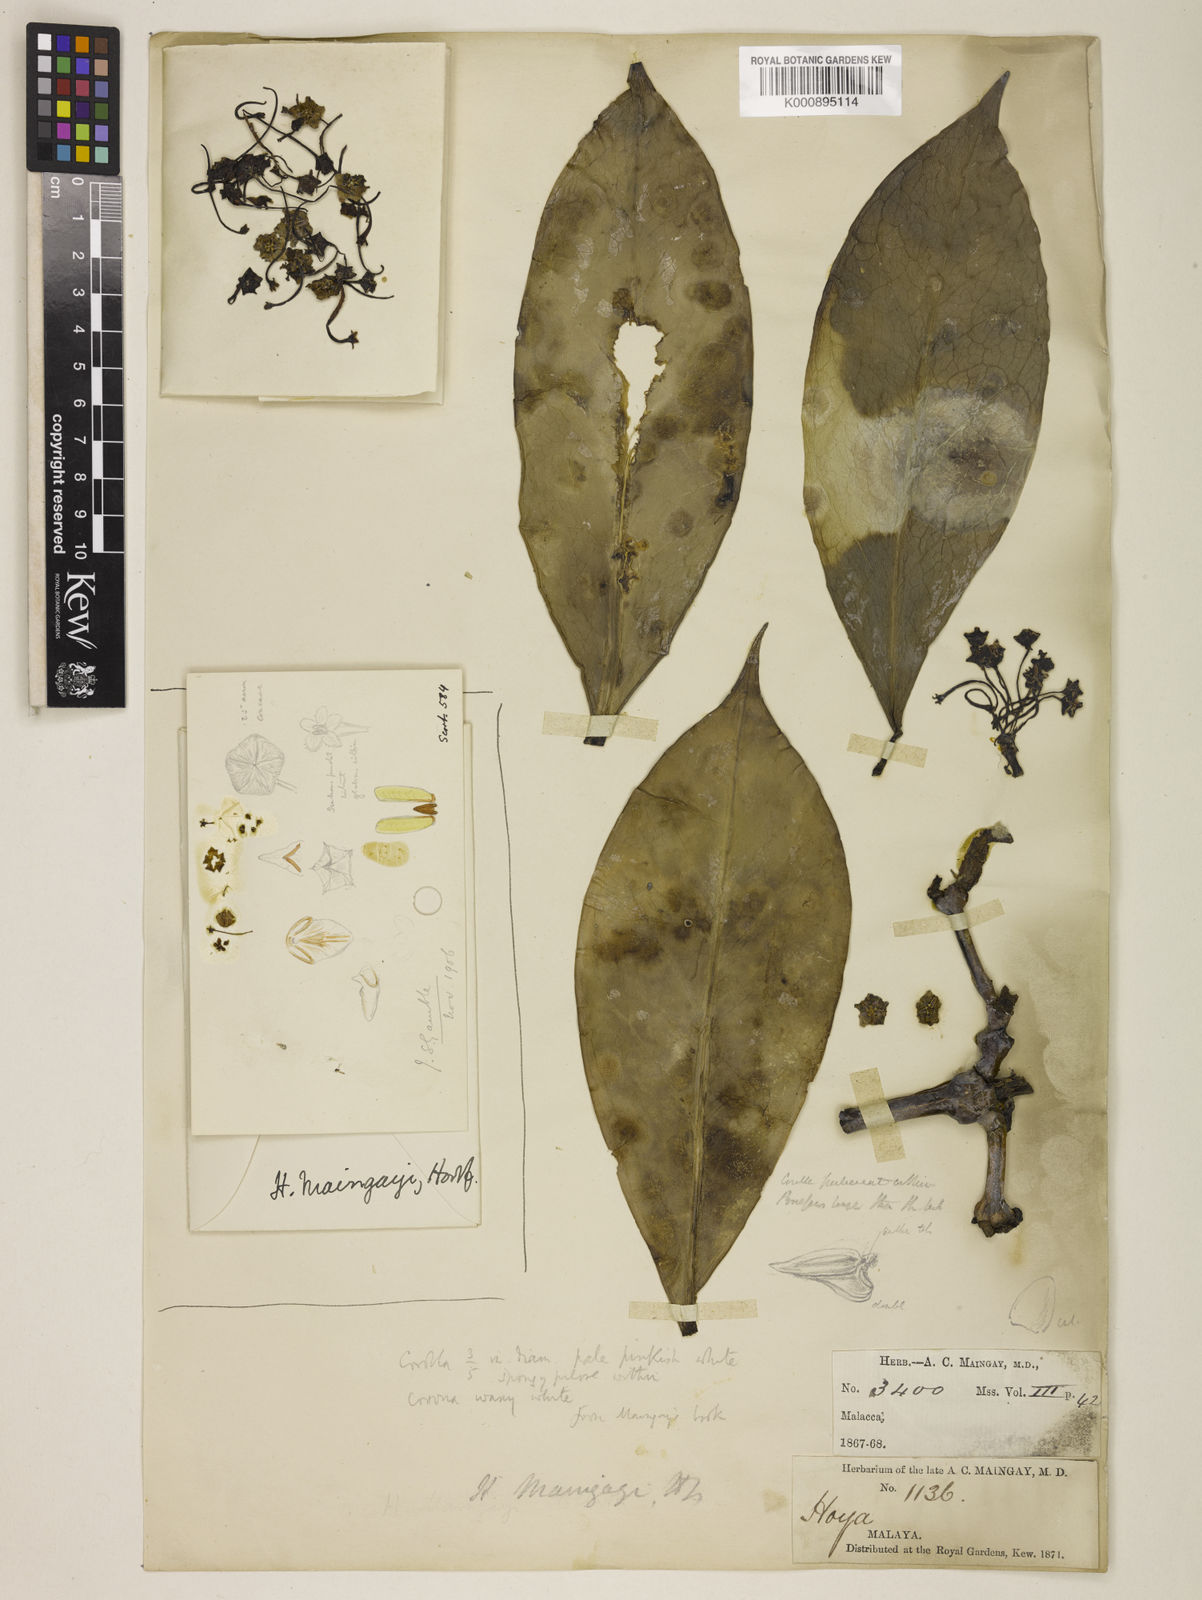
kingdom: Plantae
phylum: Tracheophyta
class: Magnoliopsida
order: Gentianales
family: Apocynaceae
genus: Hoya
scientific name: Hoya maingayi
